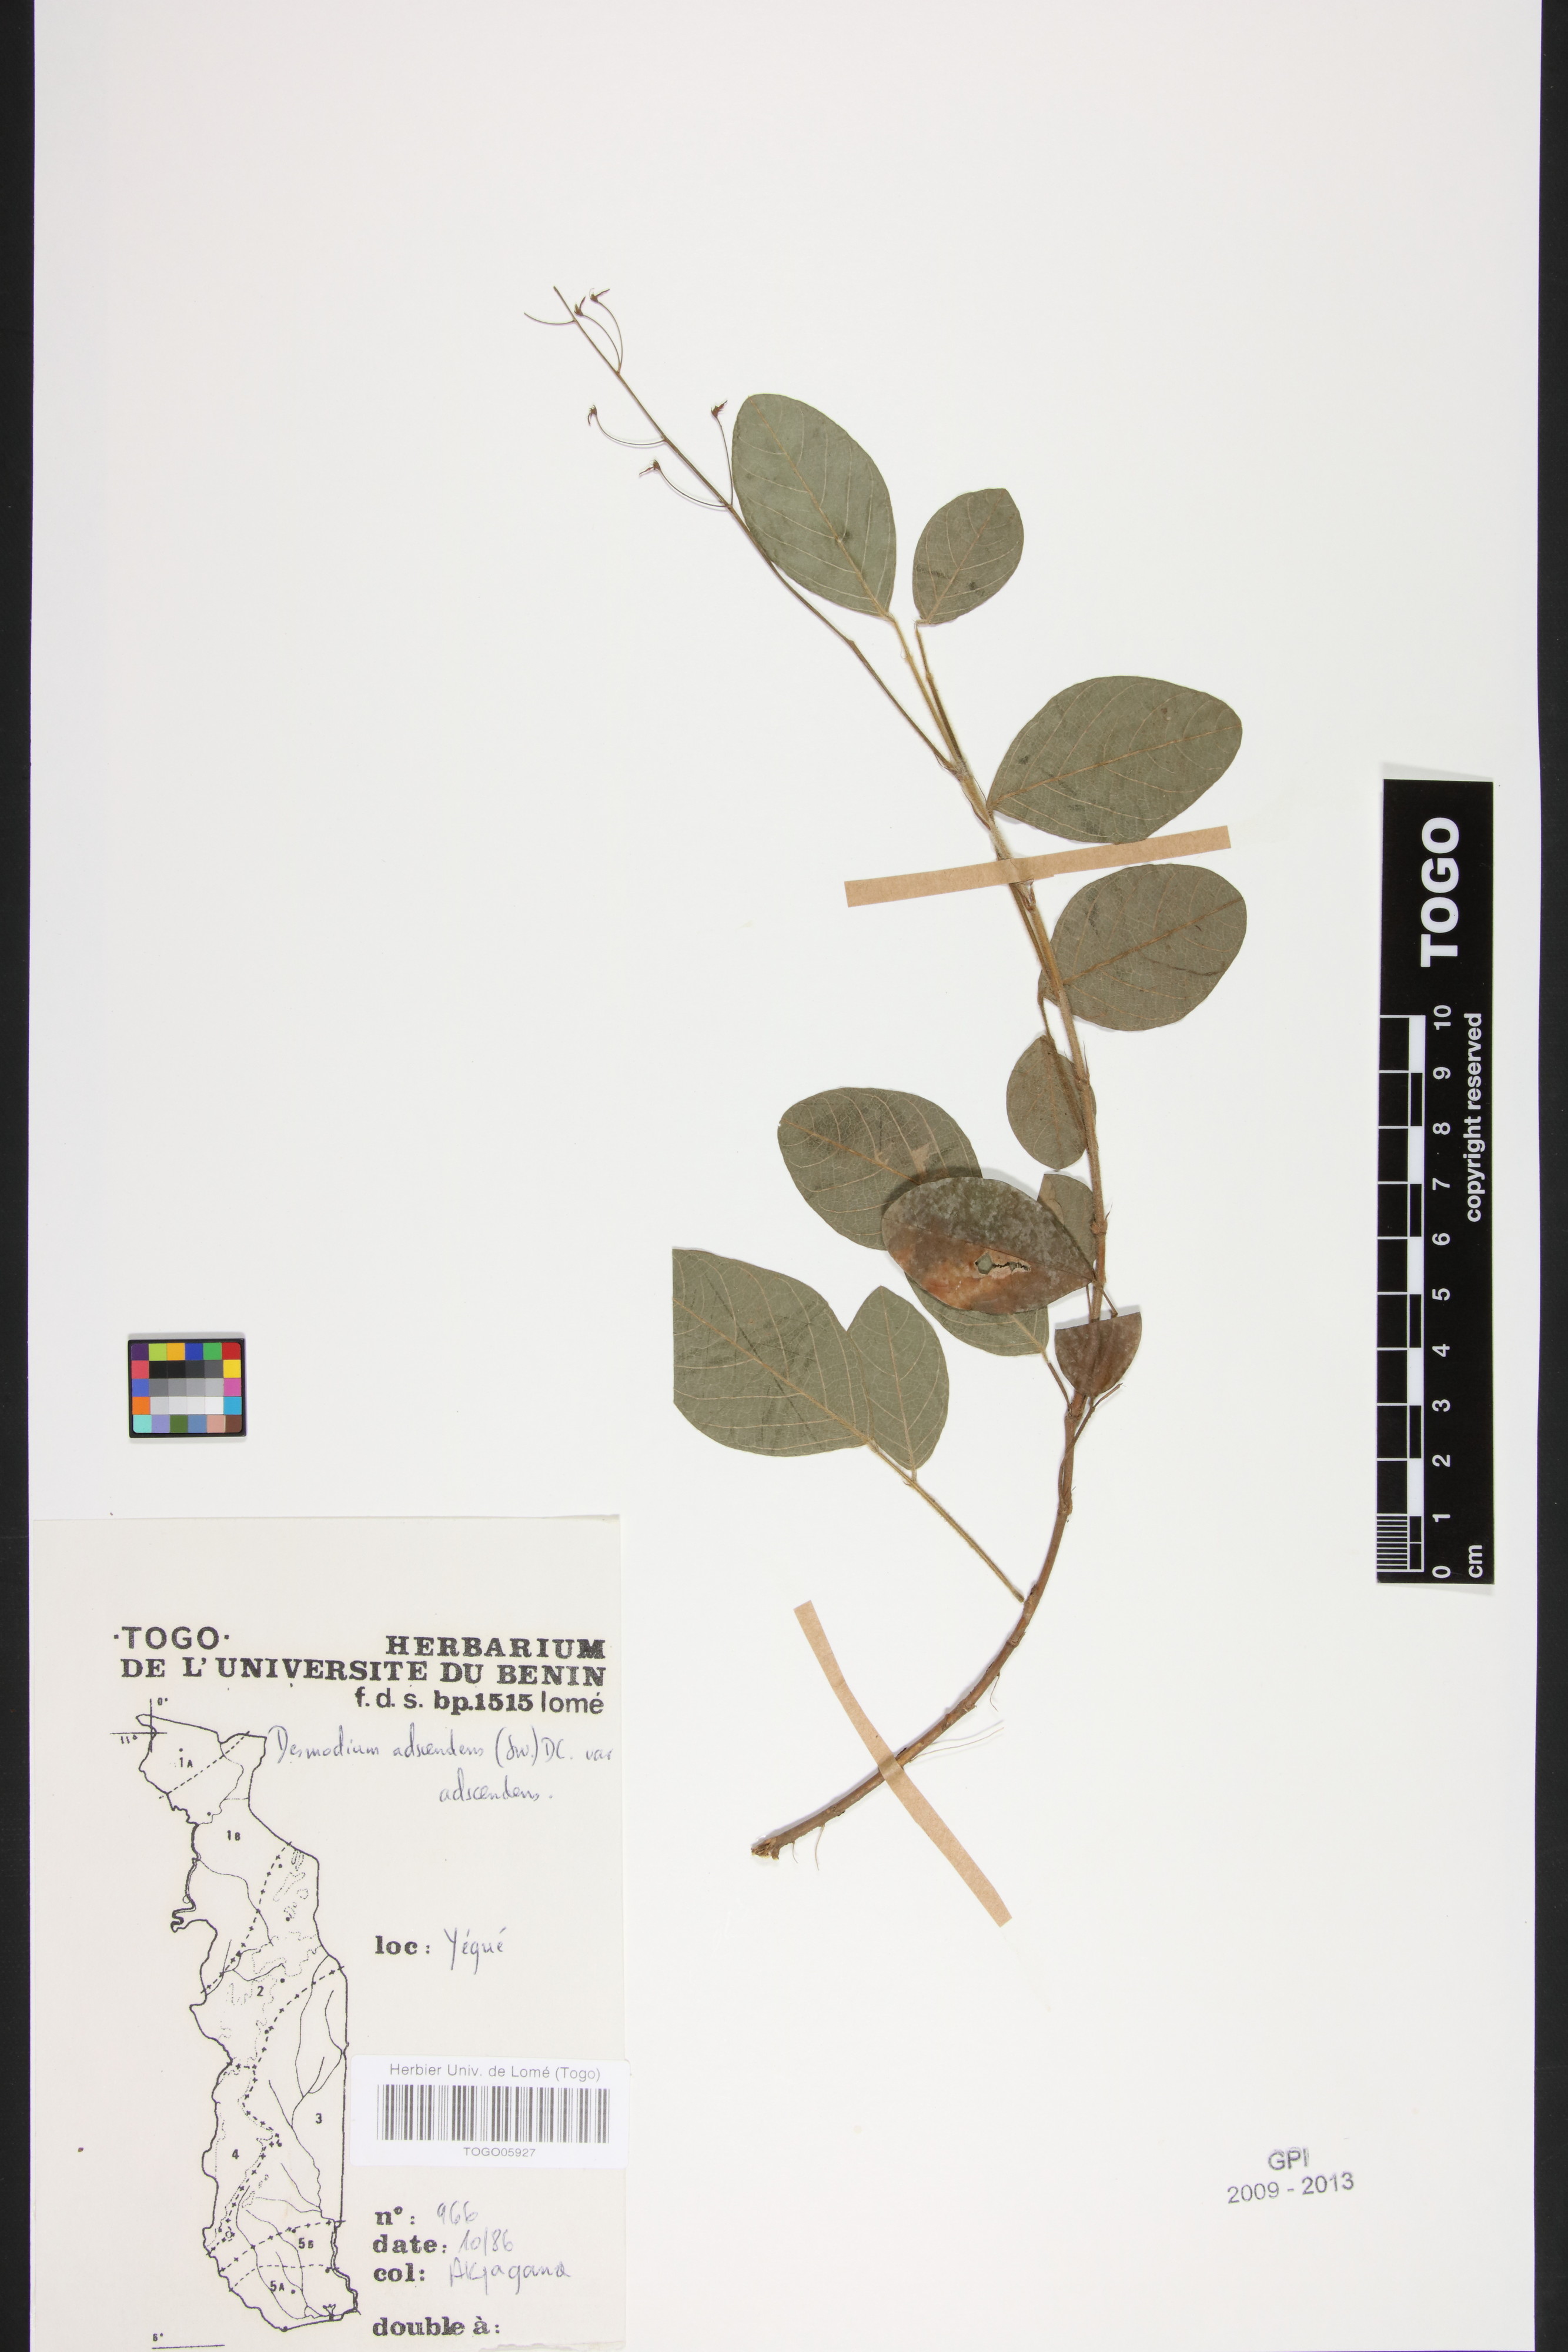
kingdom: Plantae
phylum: Tracheophyta
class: Magnoliopsida
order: Fabales
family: Fabaceae
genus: Grona
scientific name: Grona adscendens
